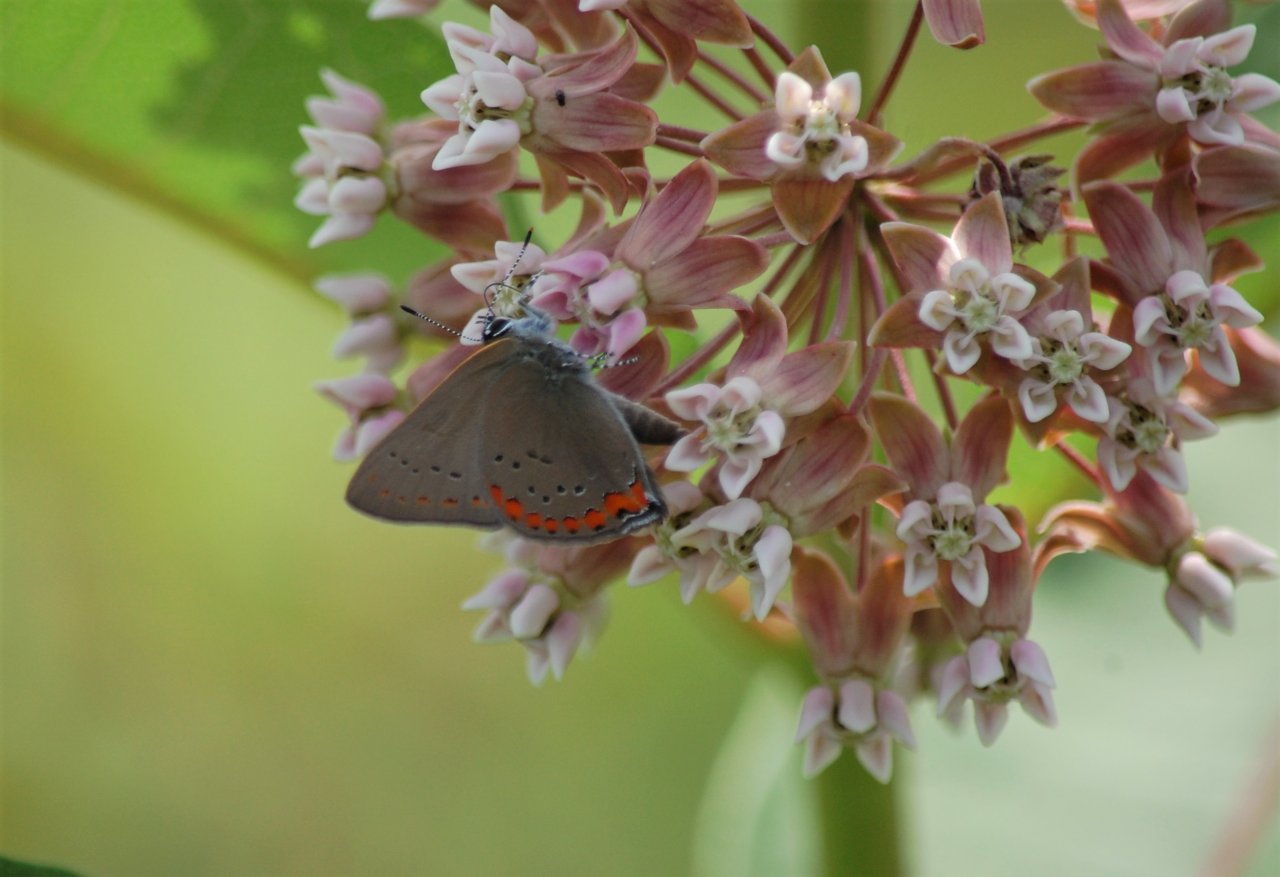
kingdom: Animalia
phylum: Arthropoda
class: Insecta
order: Lepidoptera
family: Lycaenidae
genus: Harkenclenus
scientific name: Harkenclenus titus
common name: Coral Hairstreak
